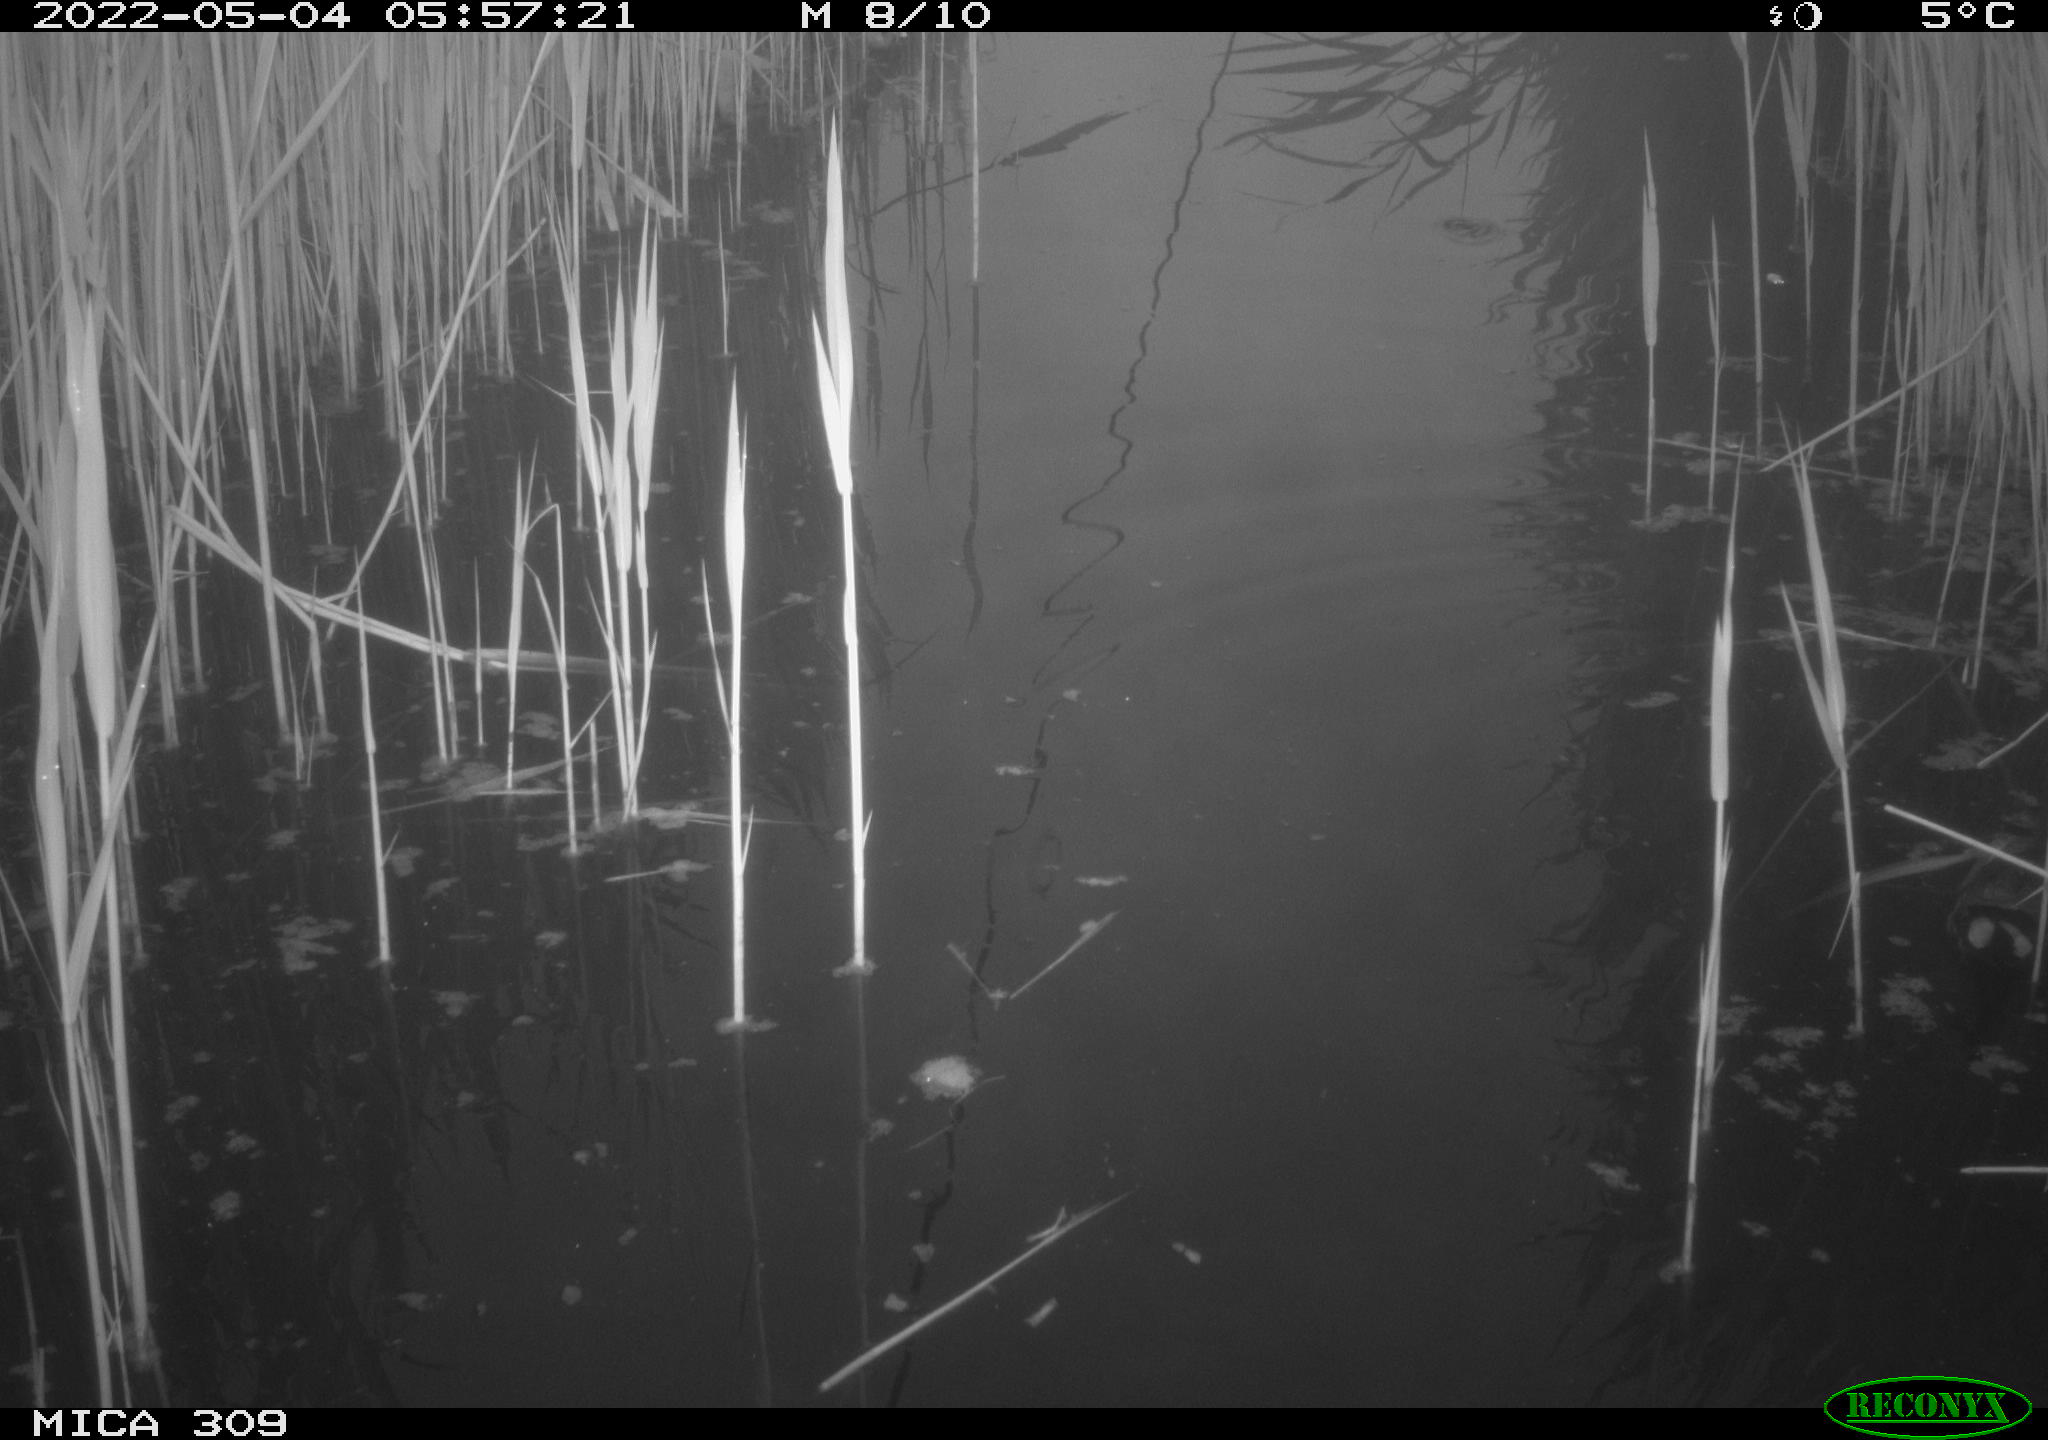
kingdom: Animalia
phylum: Chordata
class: Aves
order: Gruiformes
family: Rallidae
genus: Gallinula
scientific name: Gallinula chloropus
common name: Common moorhen
